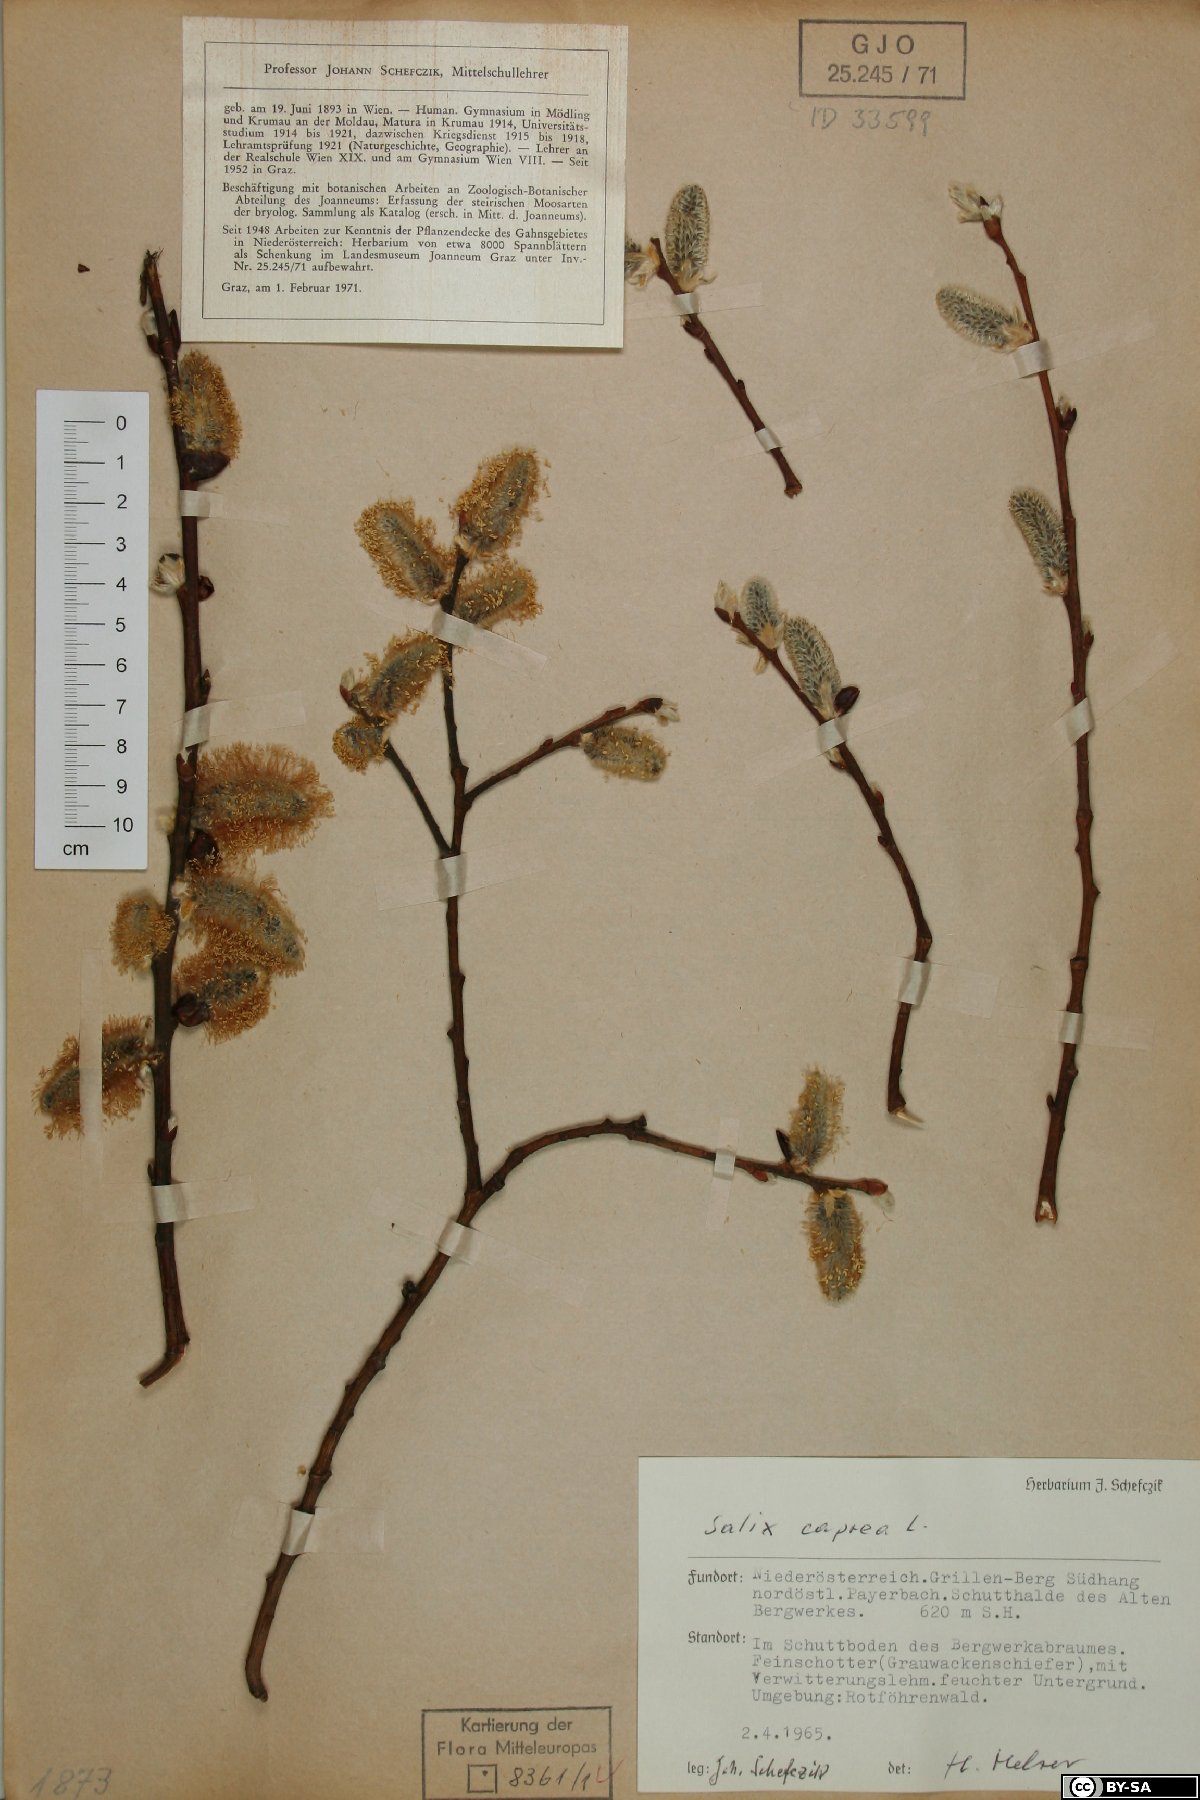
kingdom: Plantae
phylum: Tracheophyta
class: Magnoliopsida
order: Malpighiales
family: Salicaceae
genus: Salix
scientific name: Salix caprea
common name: Goat willow
